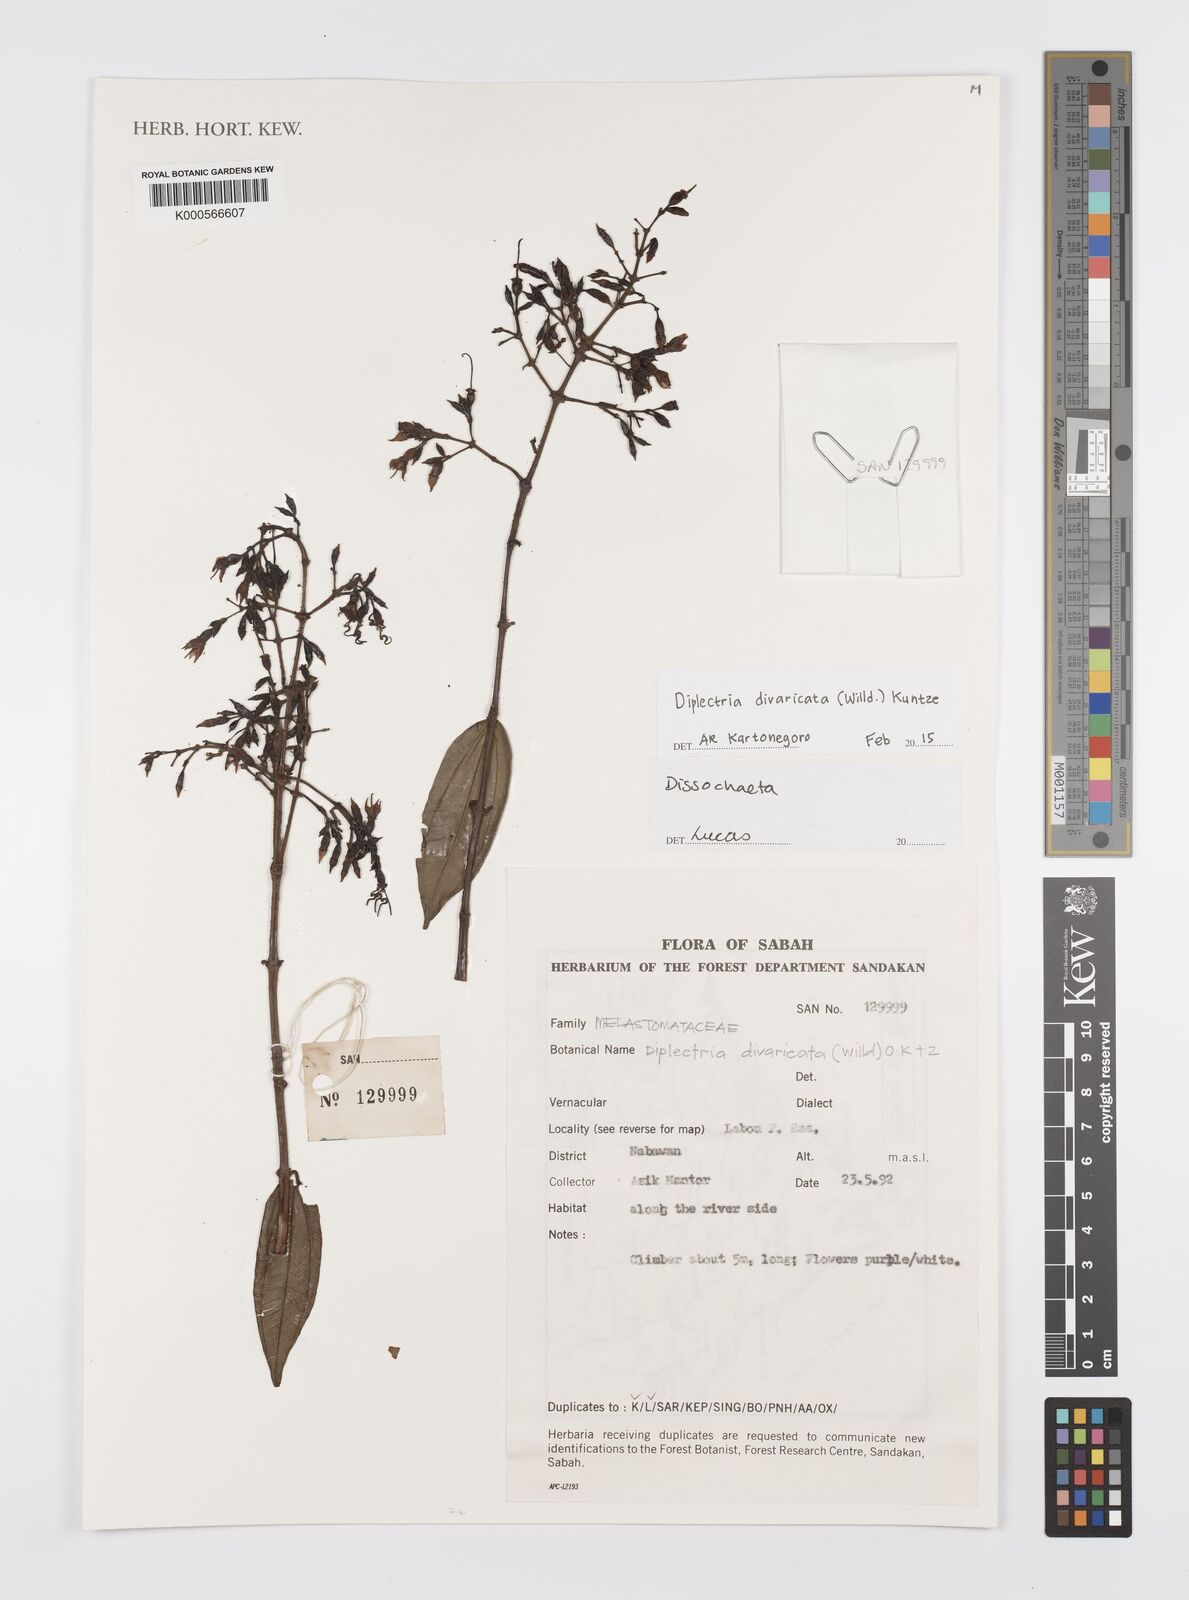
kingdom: Plantae
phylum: Tracheophyta
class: Magnoliopsida
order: Myrtales
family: Melastomataceae
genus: Diplectria
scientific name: Diplectria divaricata
